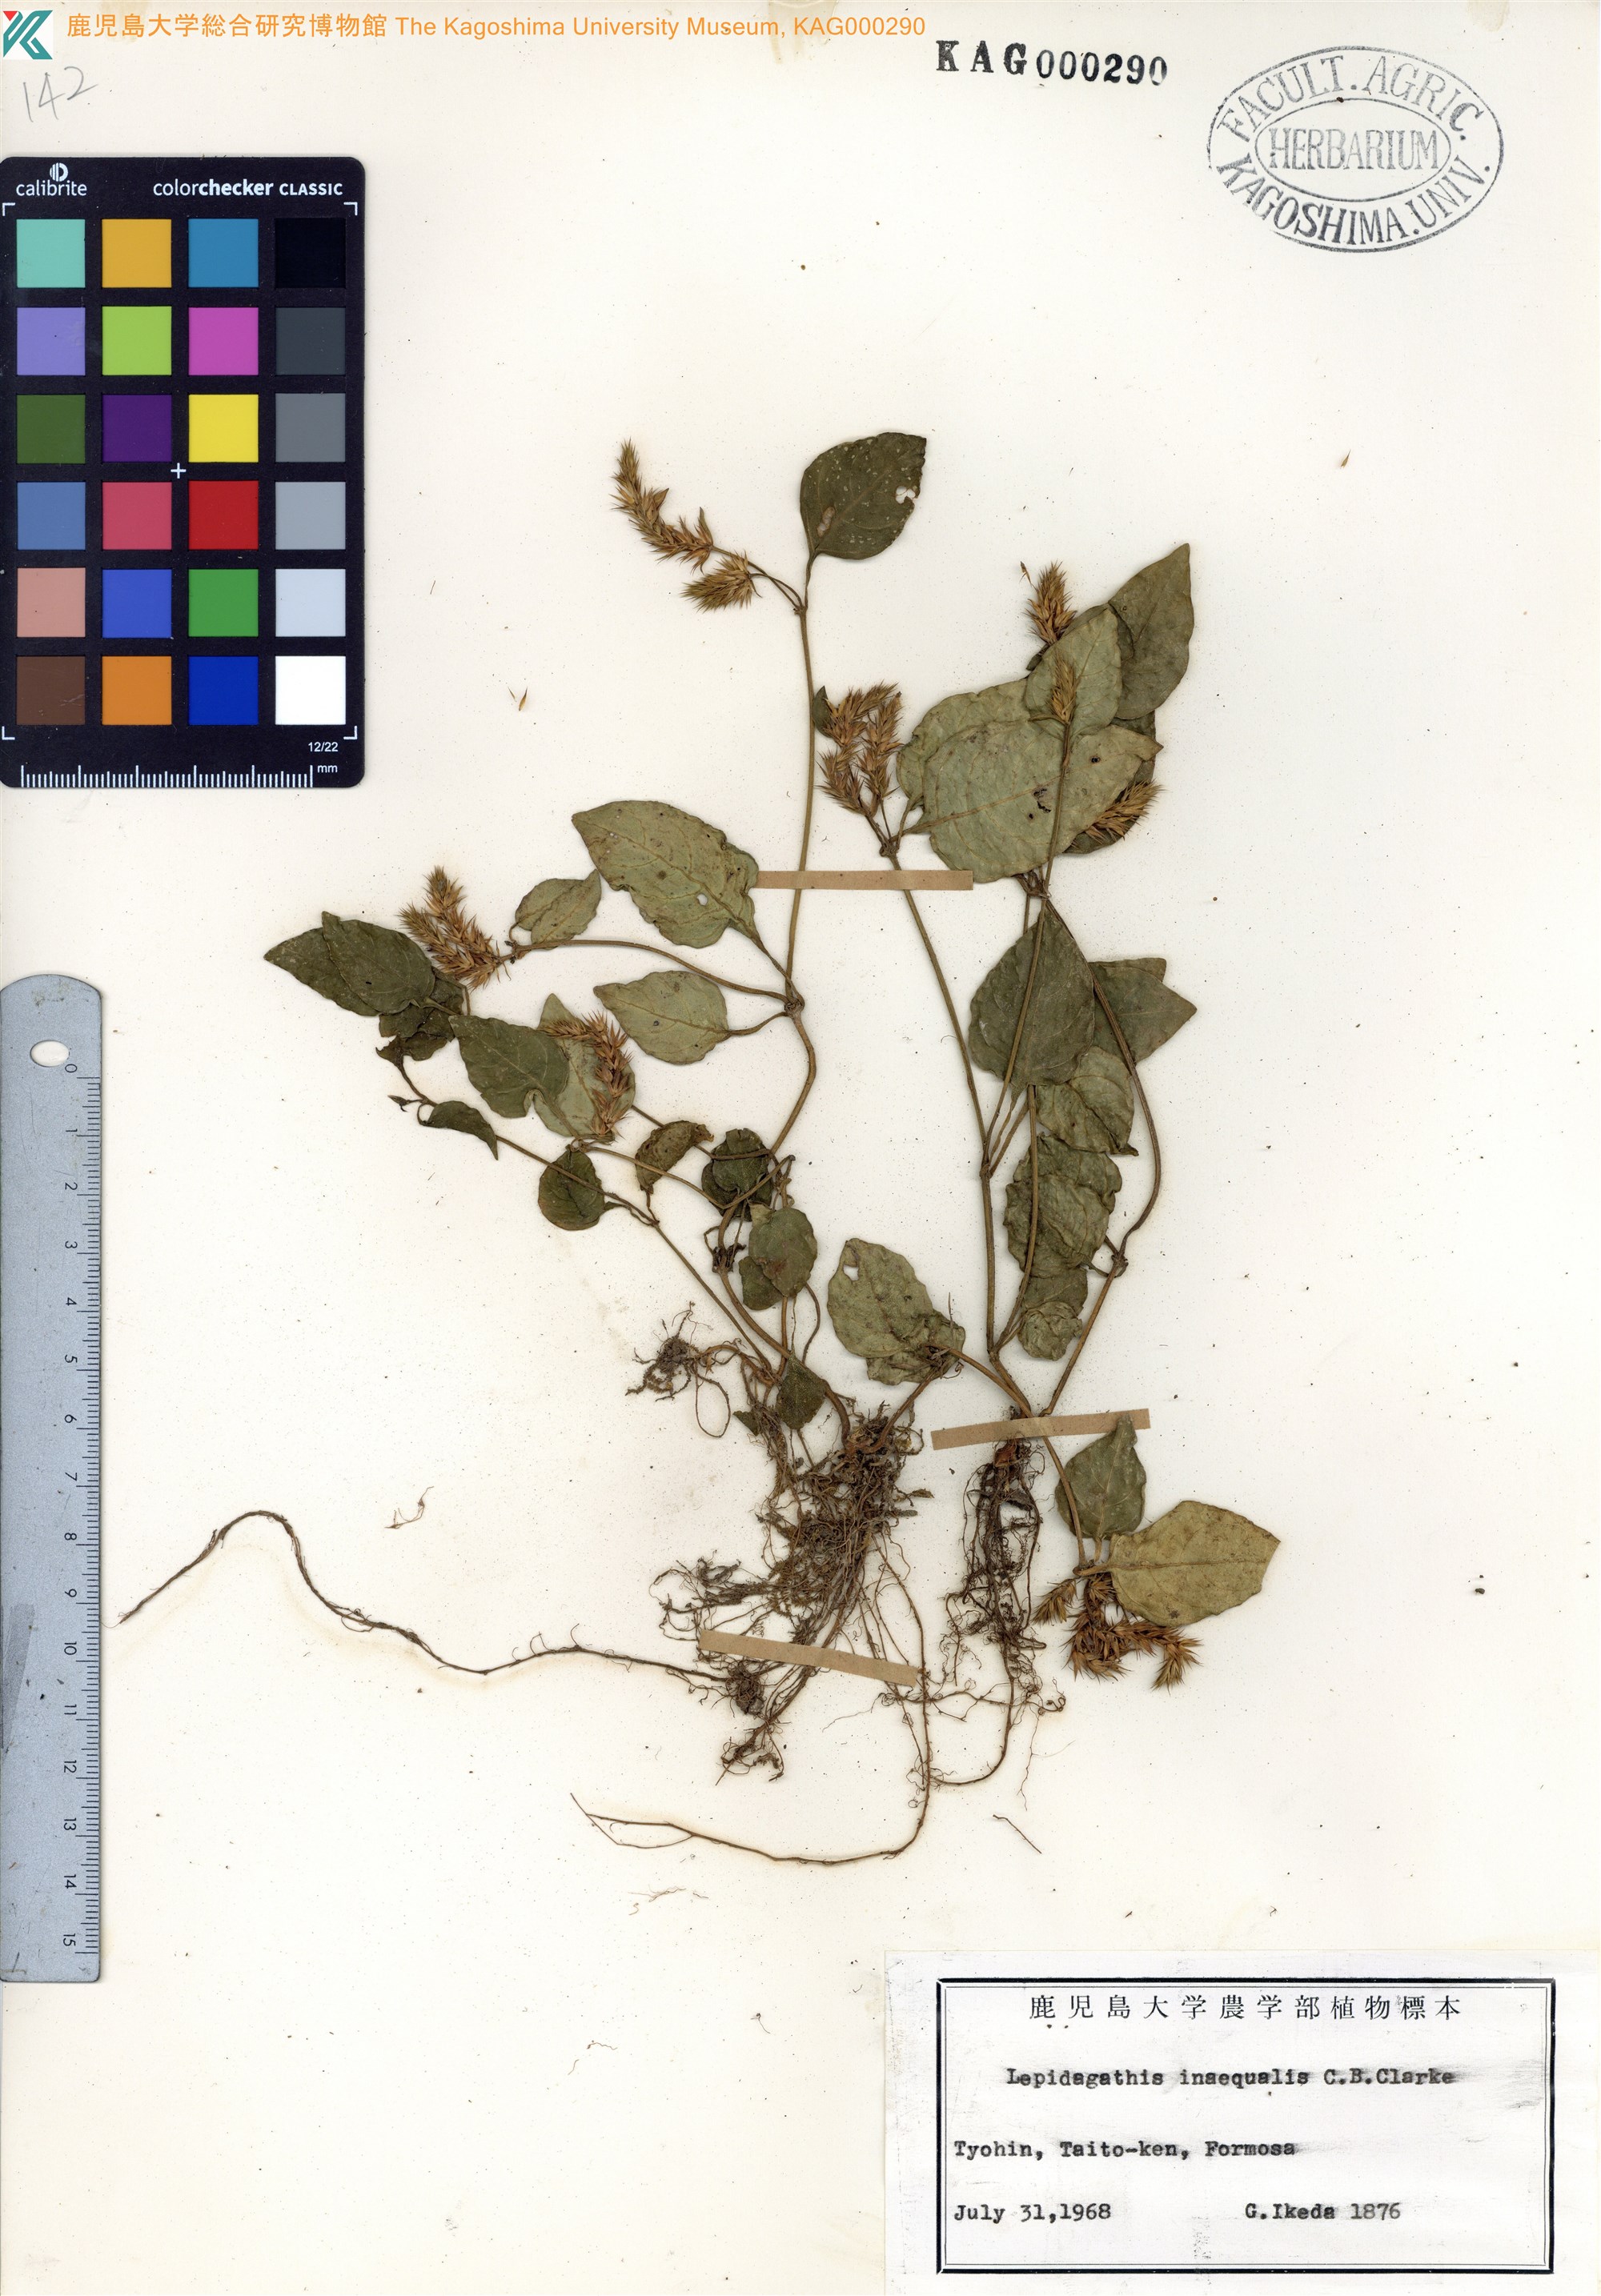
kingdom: Plantae
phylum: Tracheophyta
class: Magnoliopsida
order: Lamiales
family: Acanthaceae
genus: Lepidagathis
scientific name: Lepidagathis inaequalis
